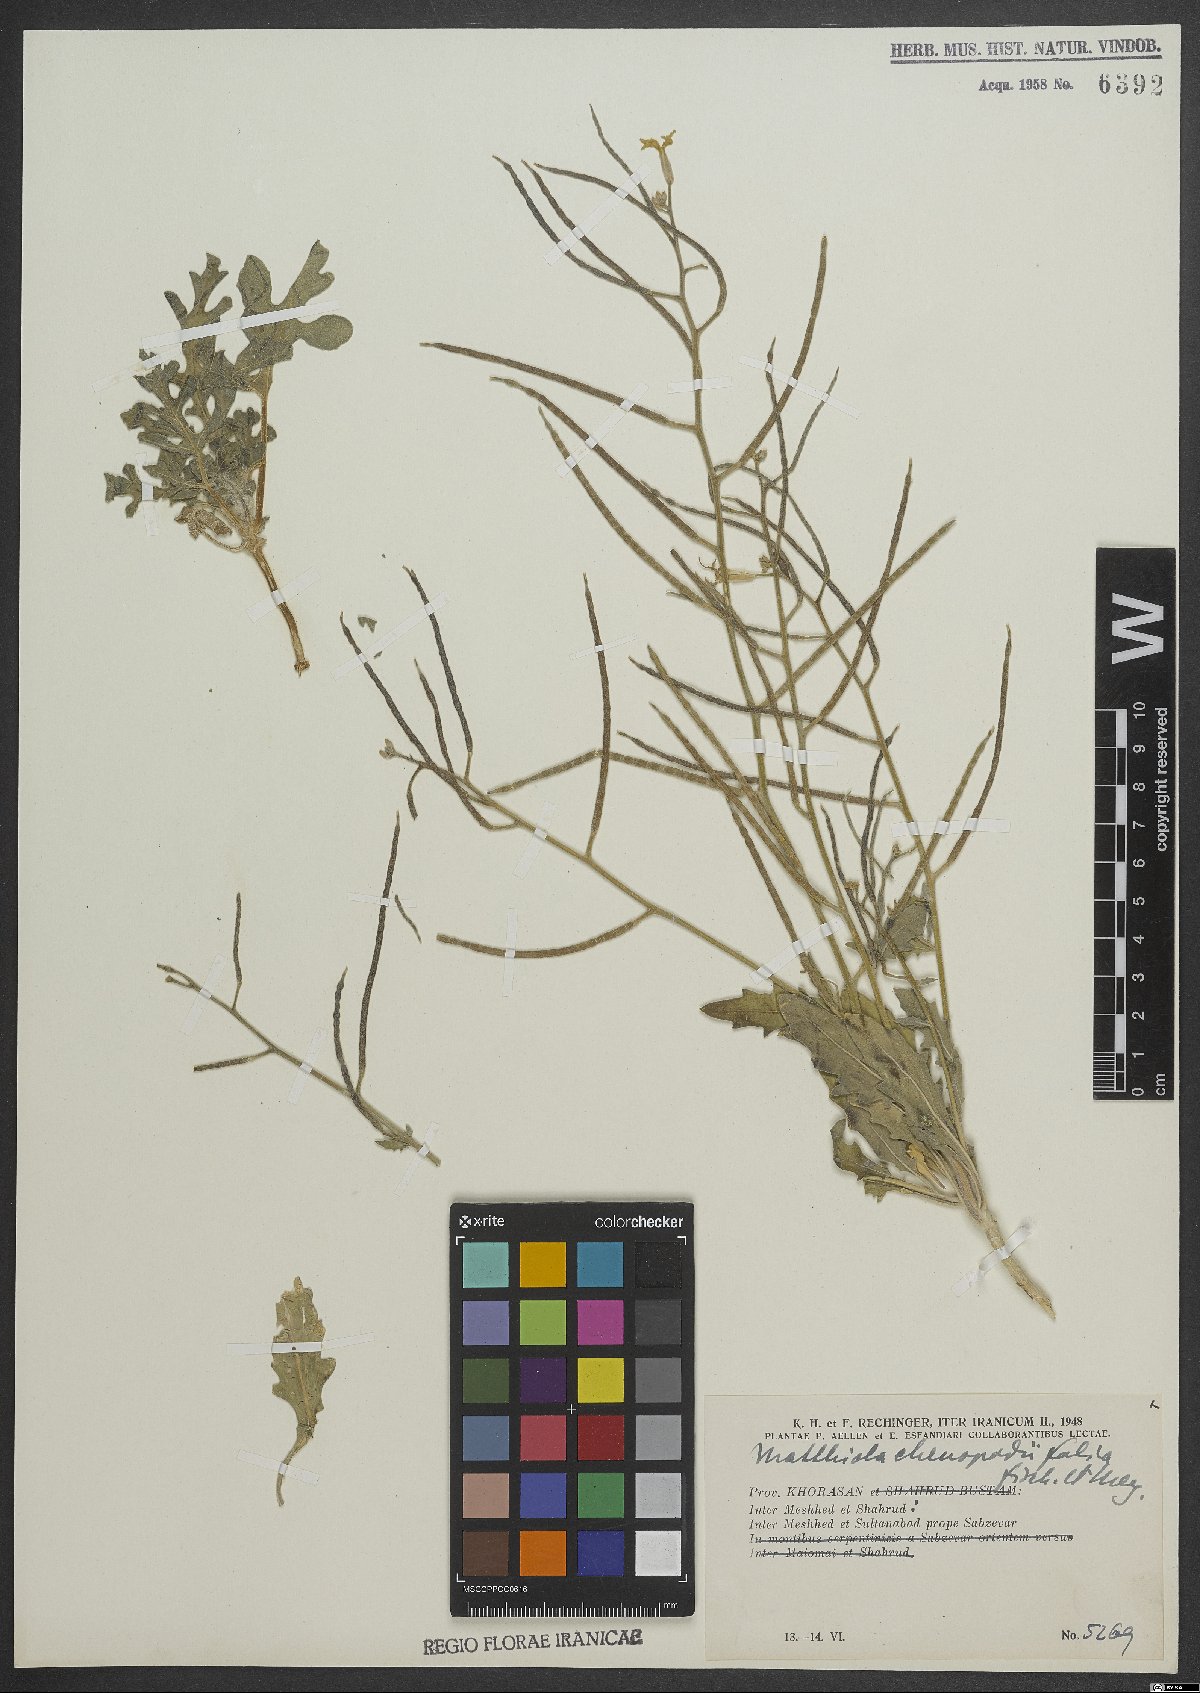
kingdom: Plantae
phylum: Tracheophyta
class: Magnoliopsida
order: Brassicales
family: Brassicaceae
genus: Matthiola
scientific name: Matthiola chenopodiifolia
